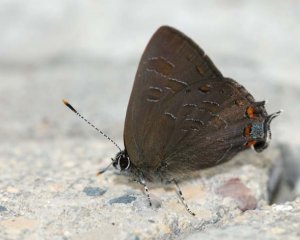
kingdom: Animalia
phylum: Arthropoda
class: Insecta
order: Lepidoptera
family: Lycaenidae
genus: Satyrium
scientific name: Satyrium liparops
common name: Striped Hairstreak
